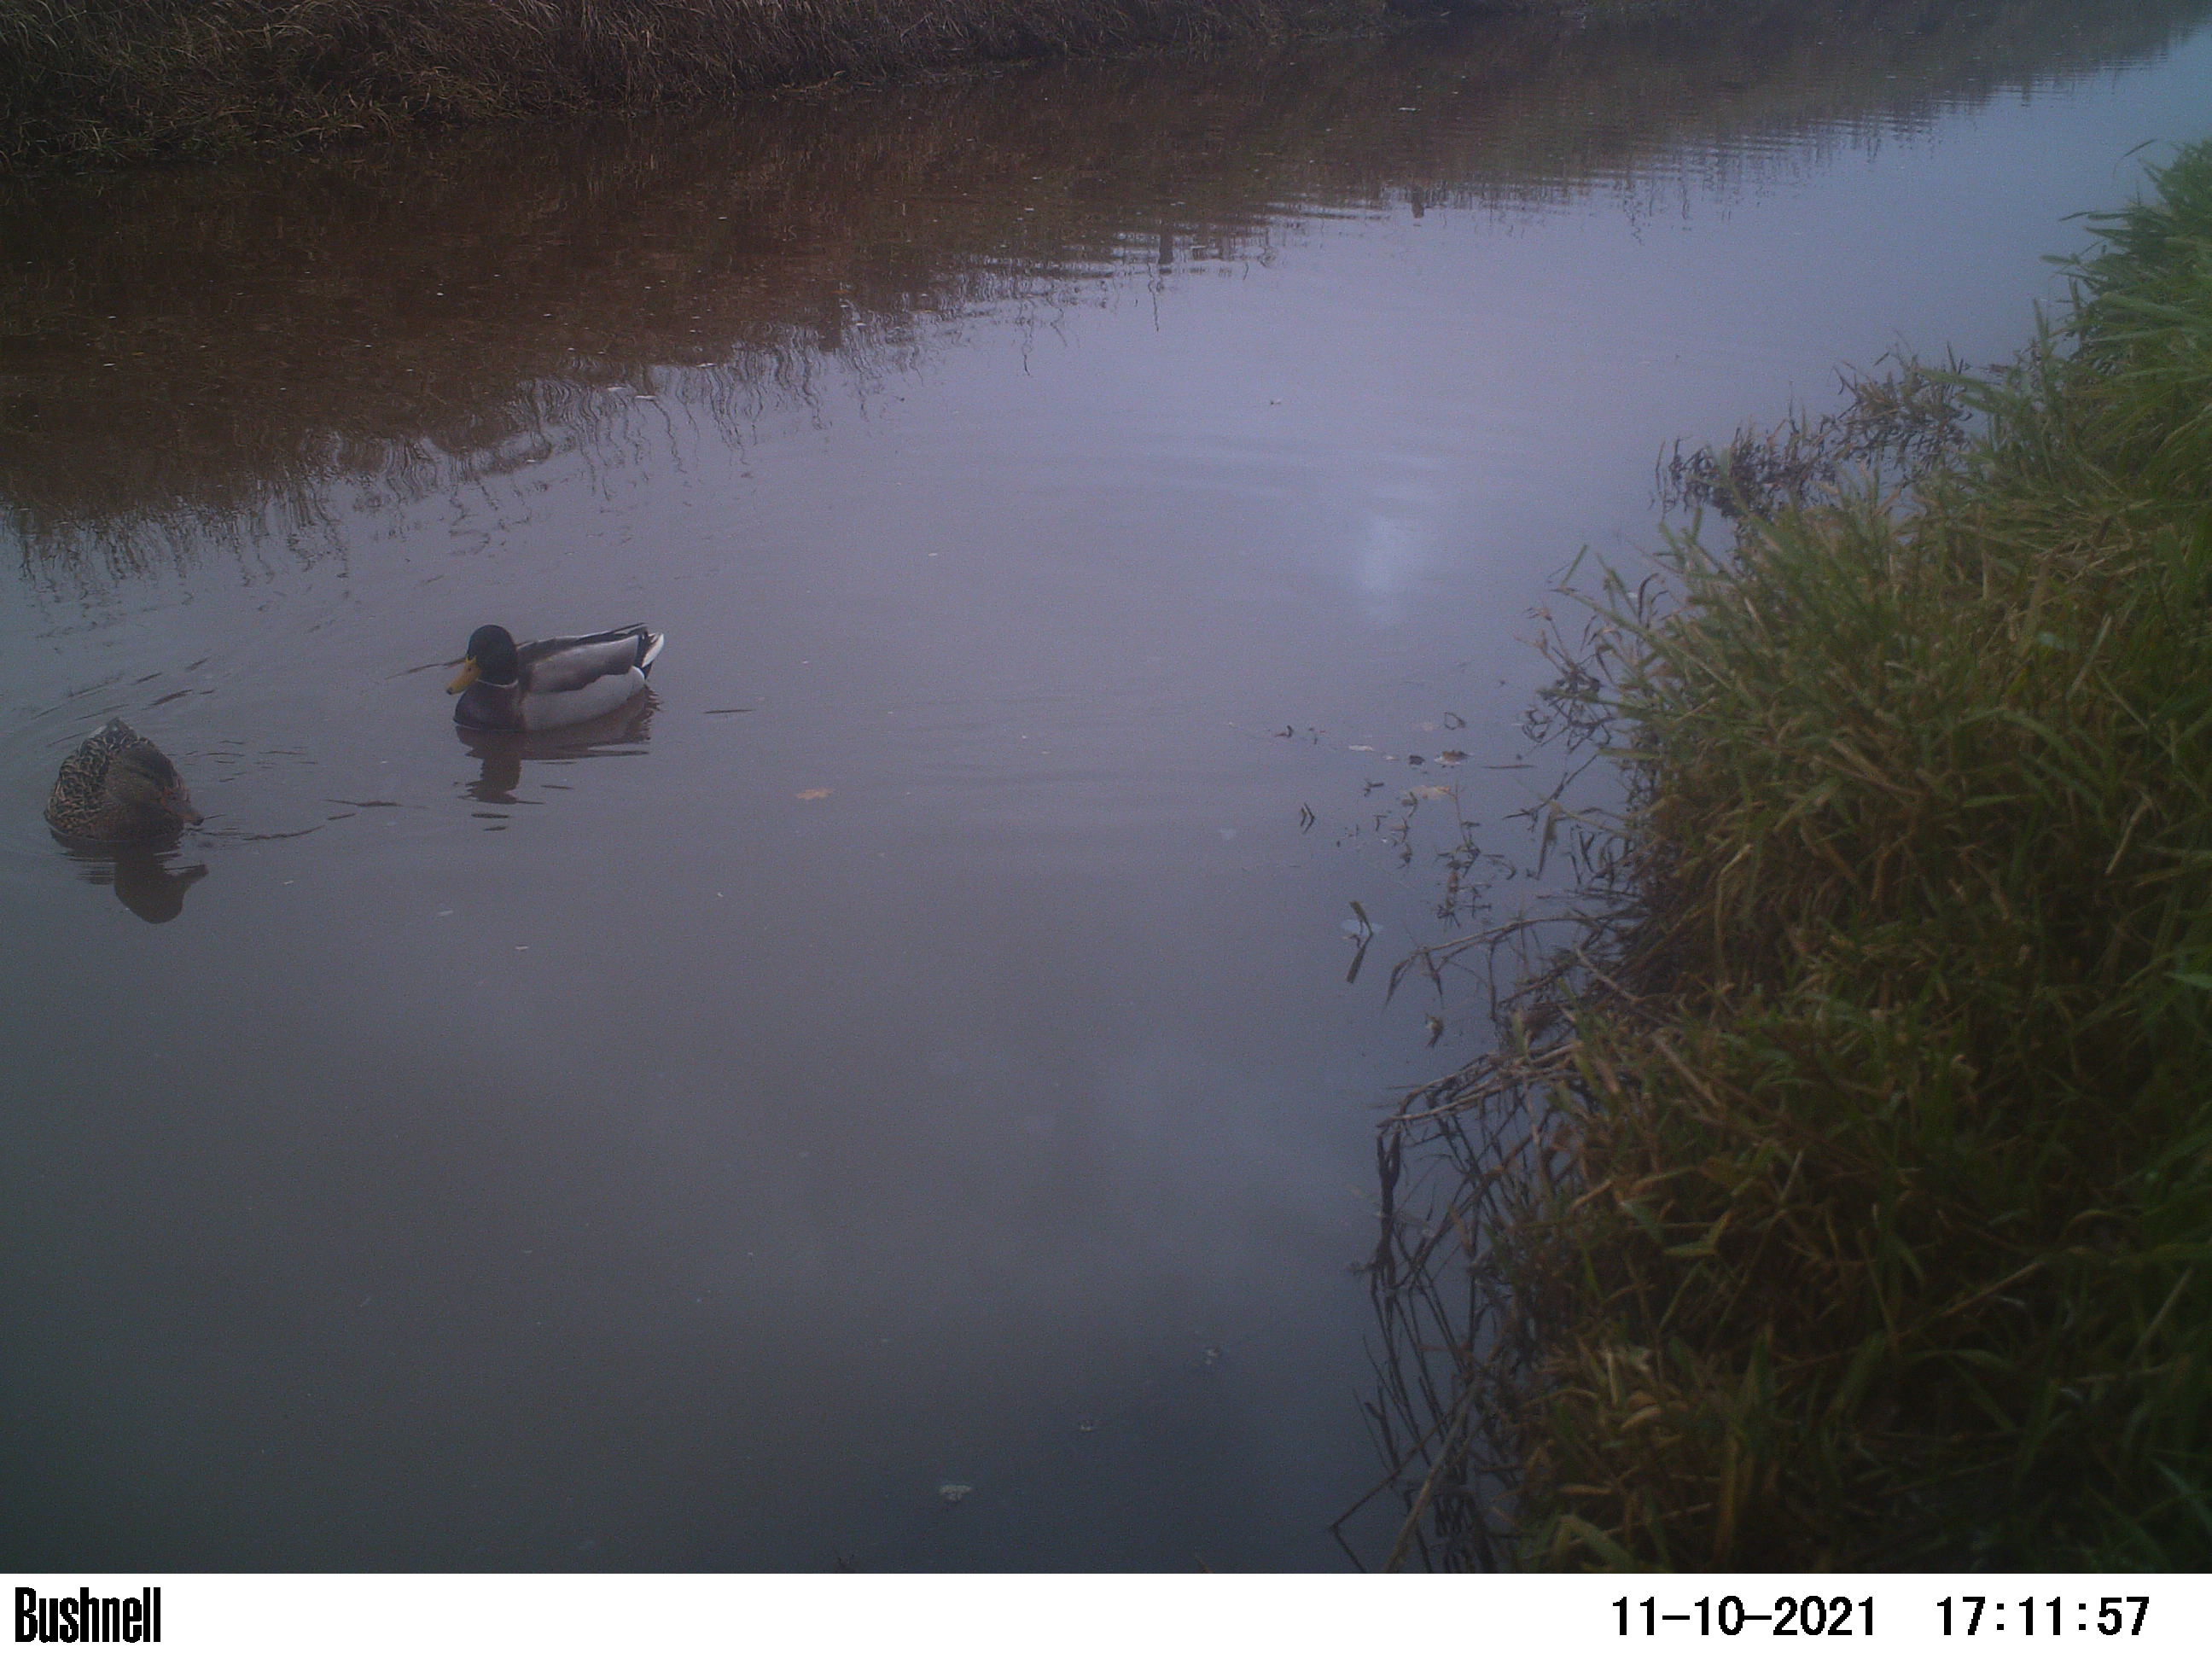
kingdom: Animalia
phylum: Chordata
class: Aves
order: Anseriformes
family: Anatidae
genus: Anas
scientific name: Anas
